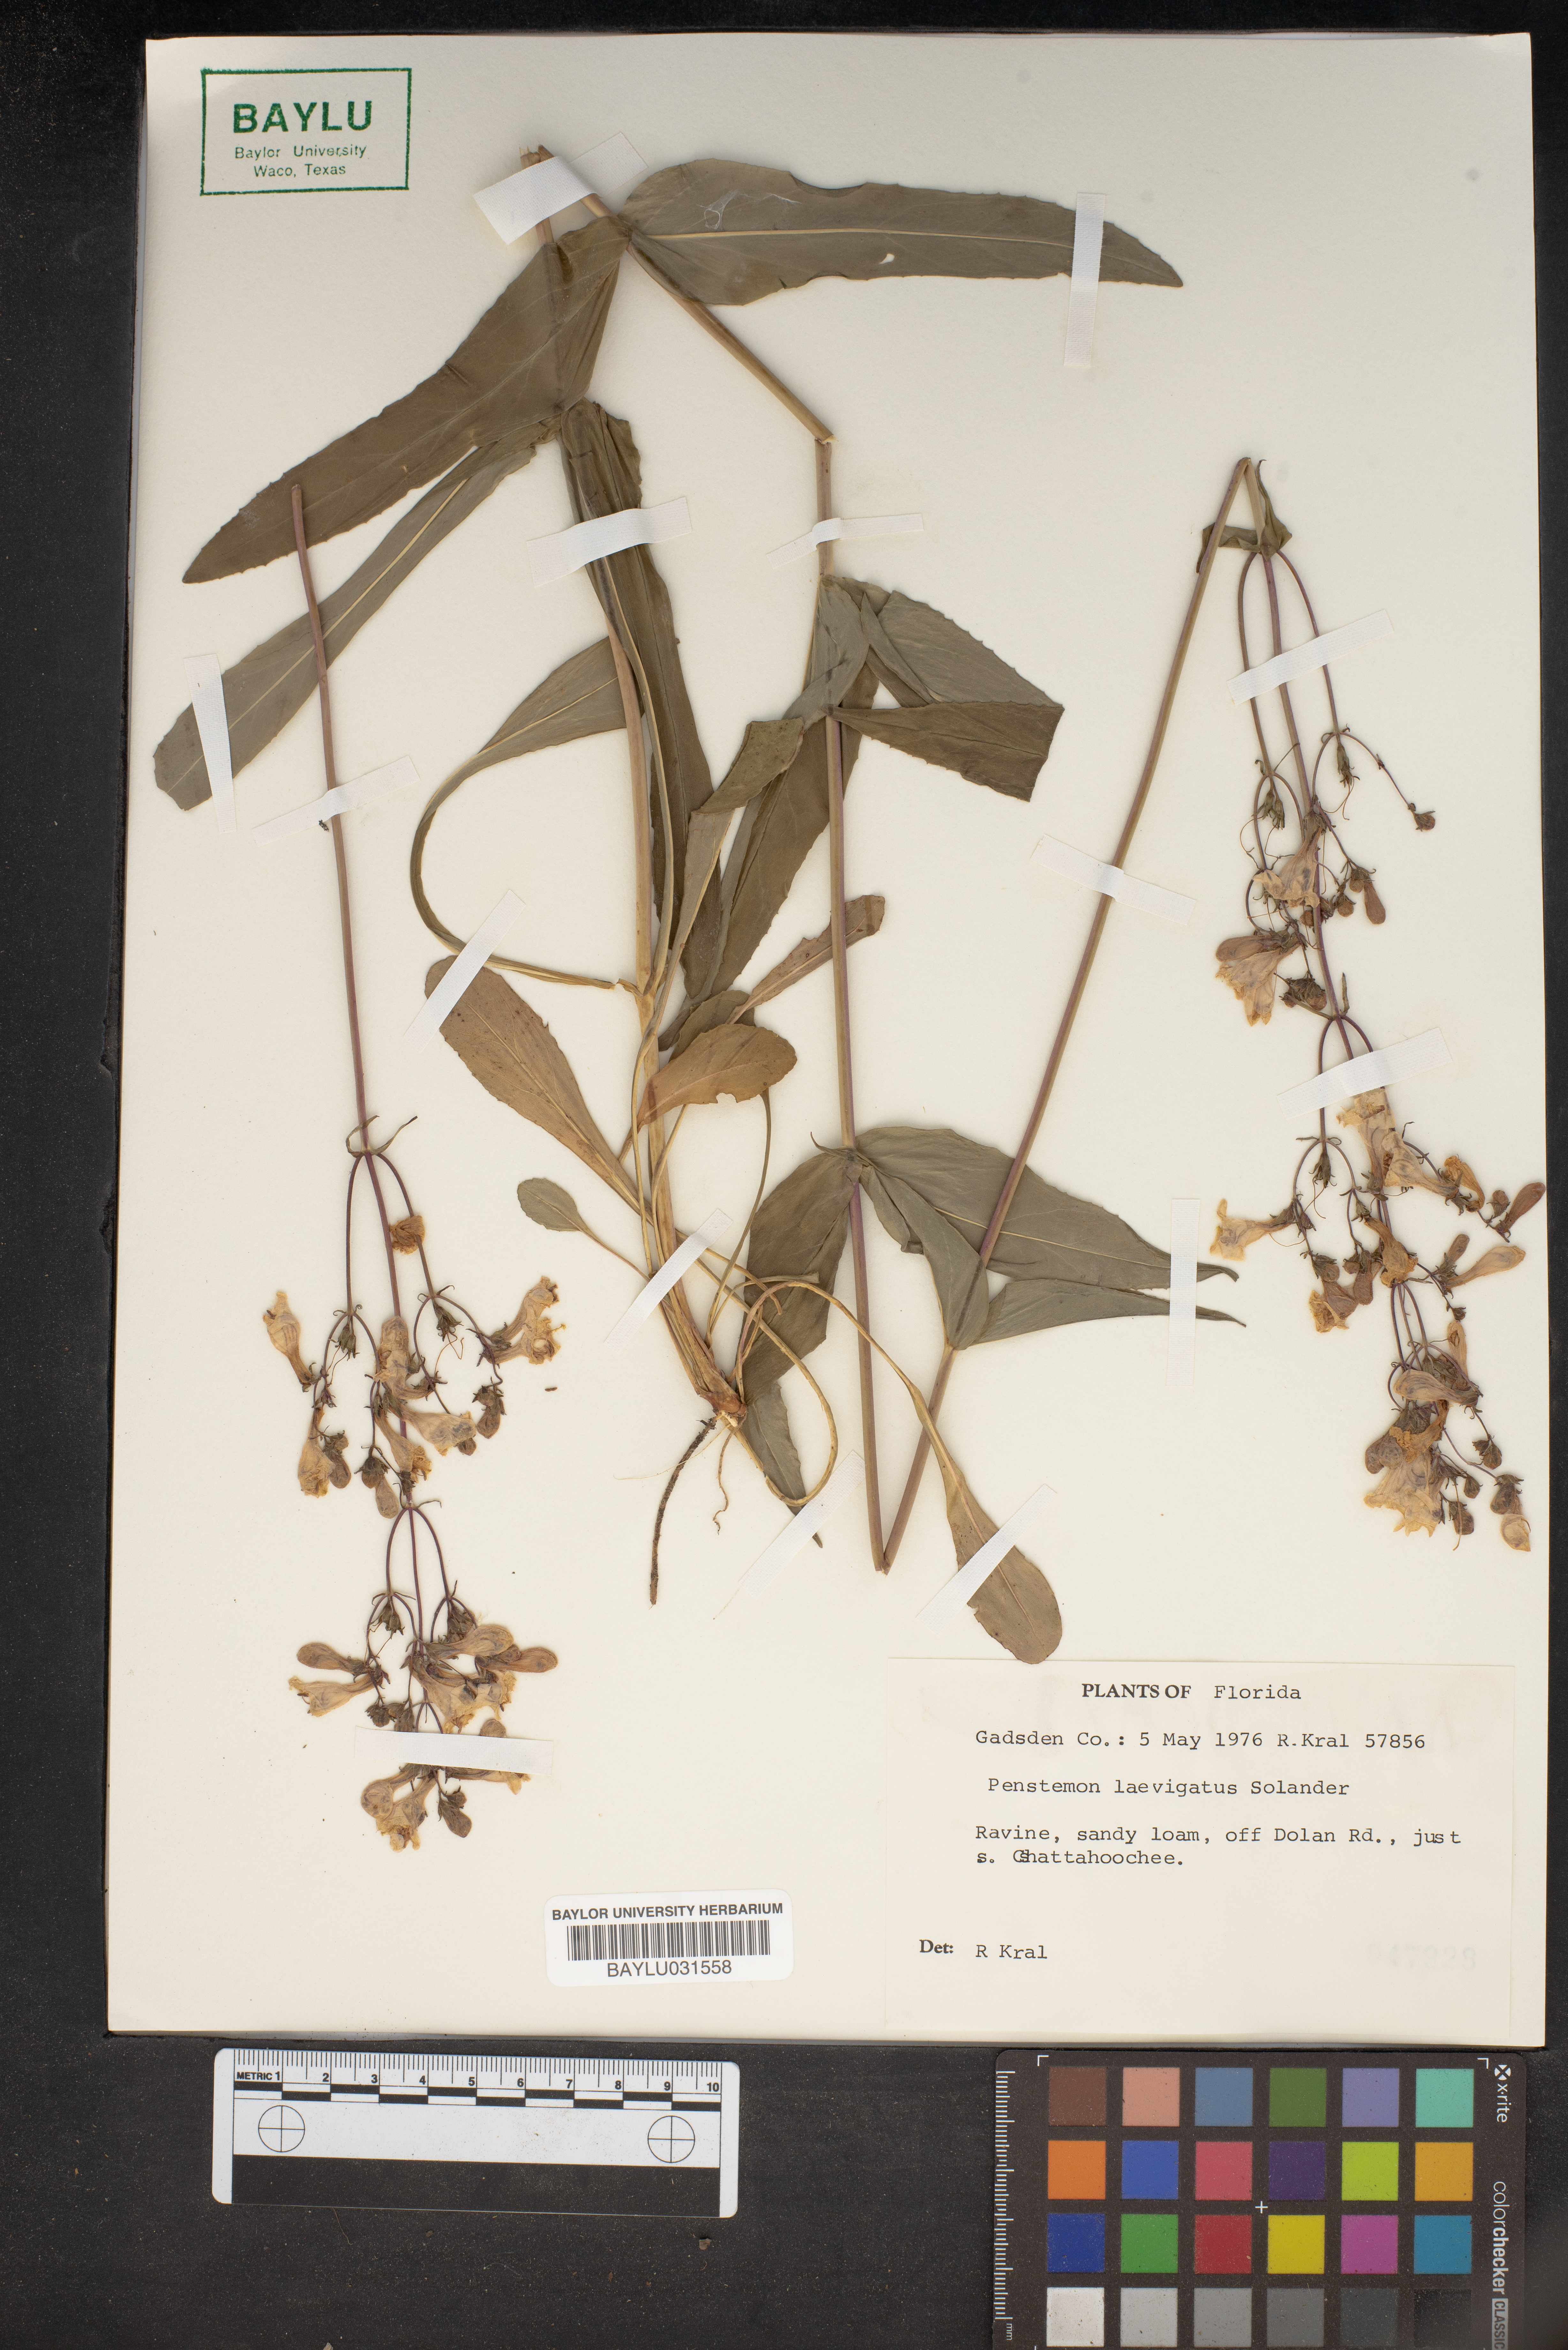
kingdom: Plantae
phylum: Tracheophyta
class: Magnoliopsida
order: Lamiales
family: Plantaginaceae
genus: Penstemon
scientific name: Penstemon laevigatus
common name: Eastern beardtongue
